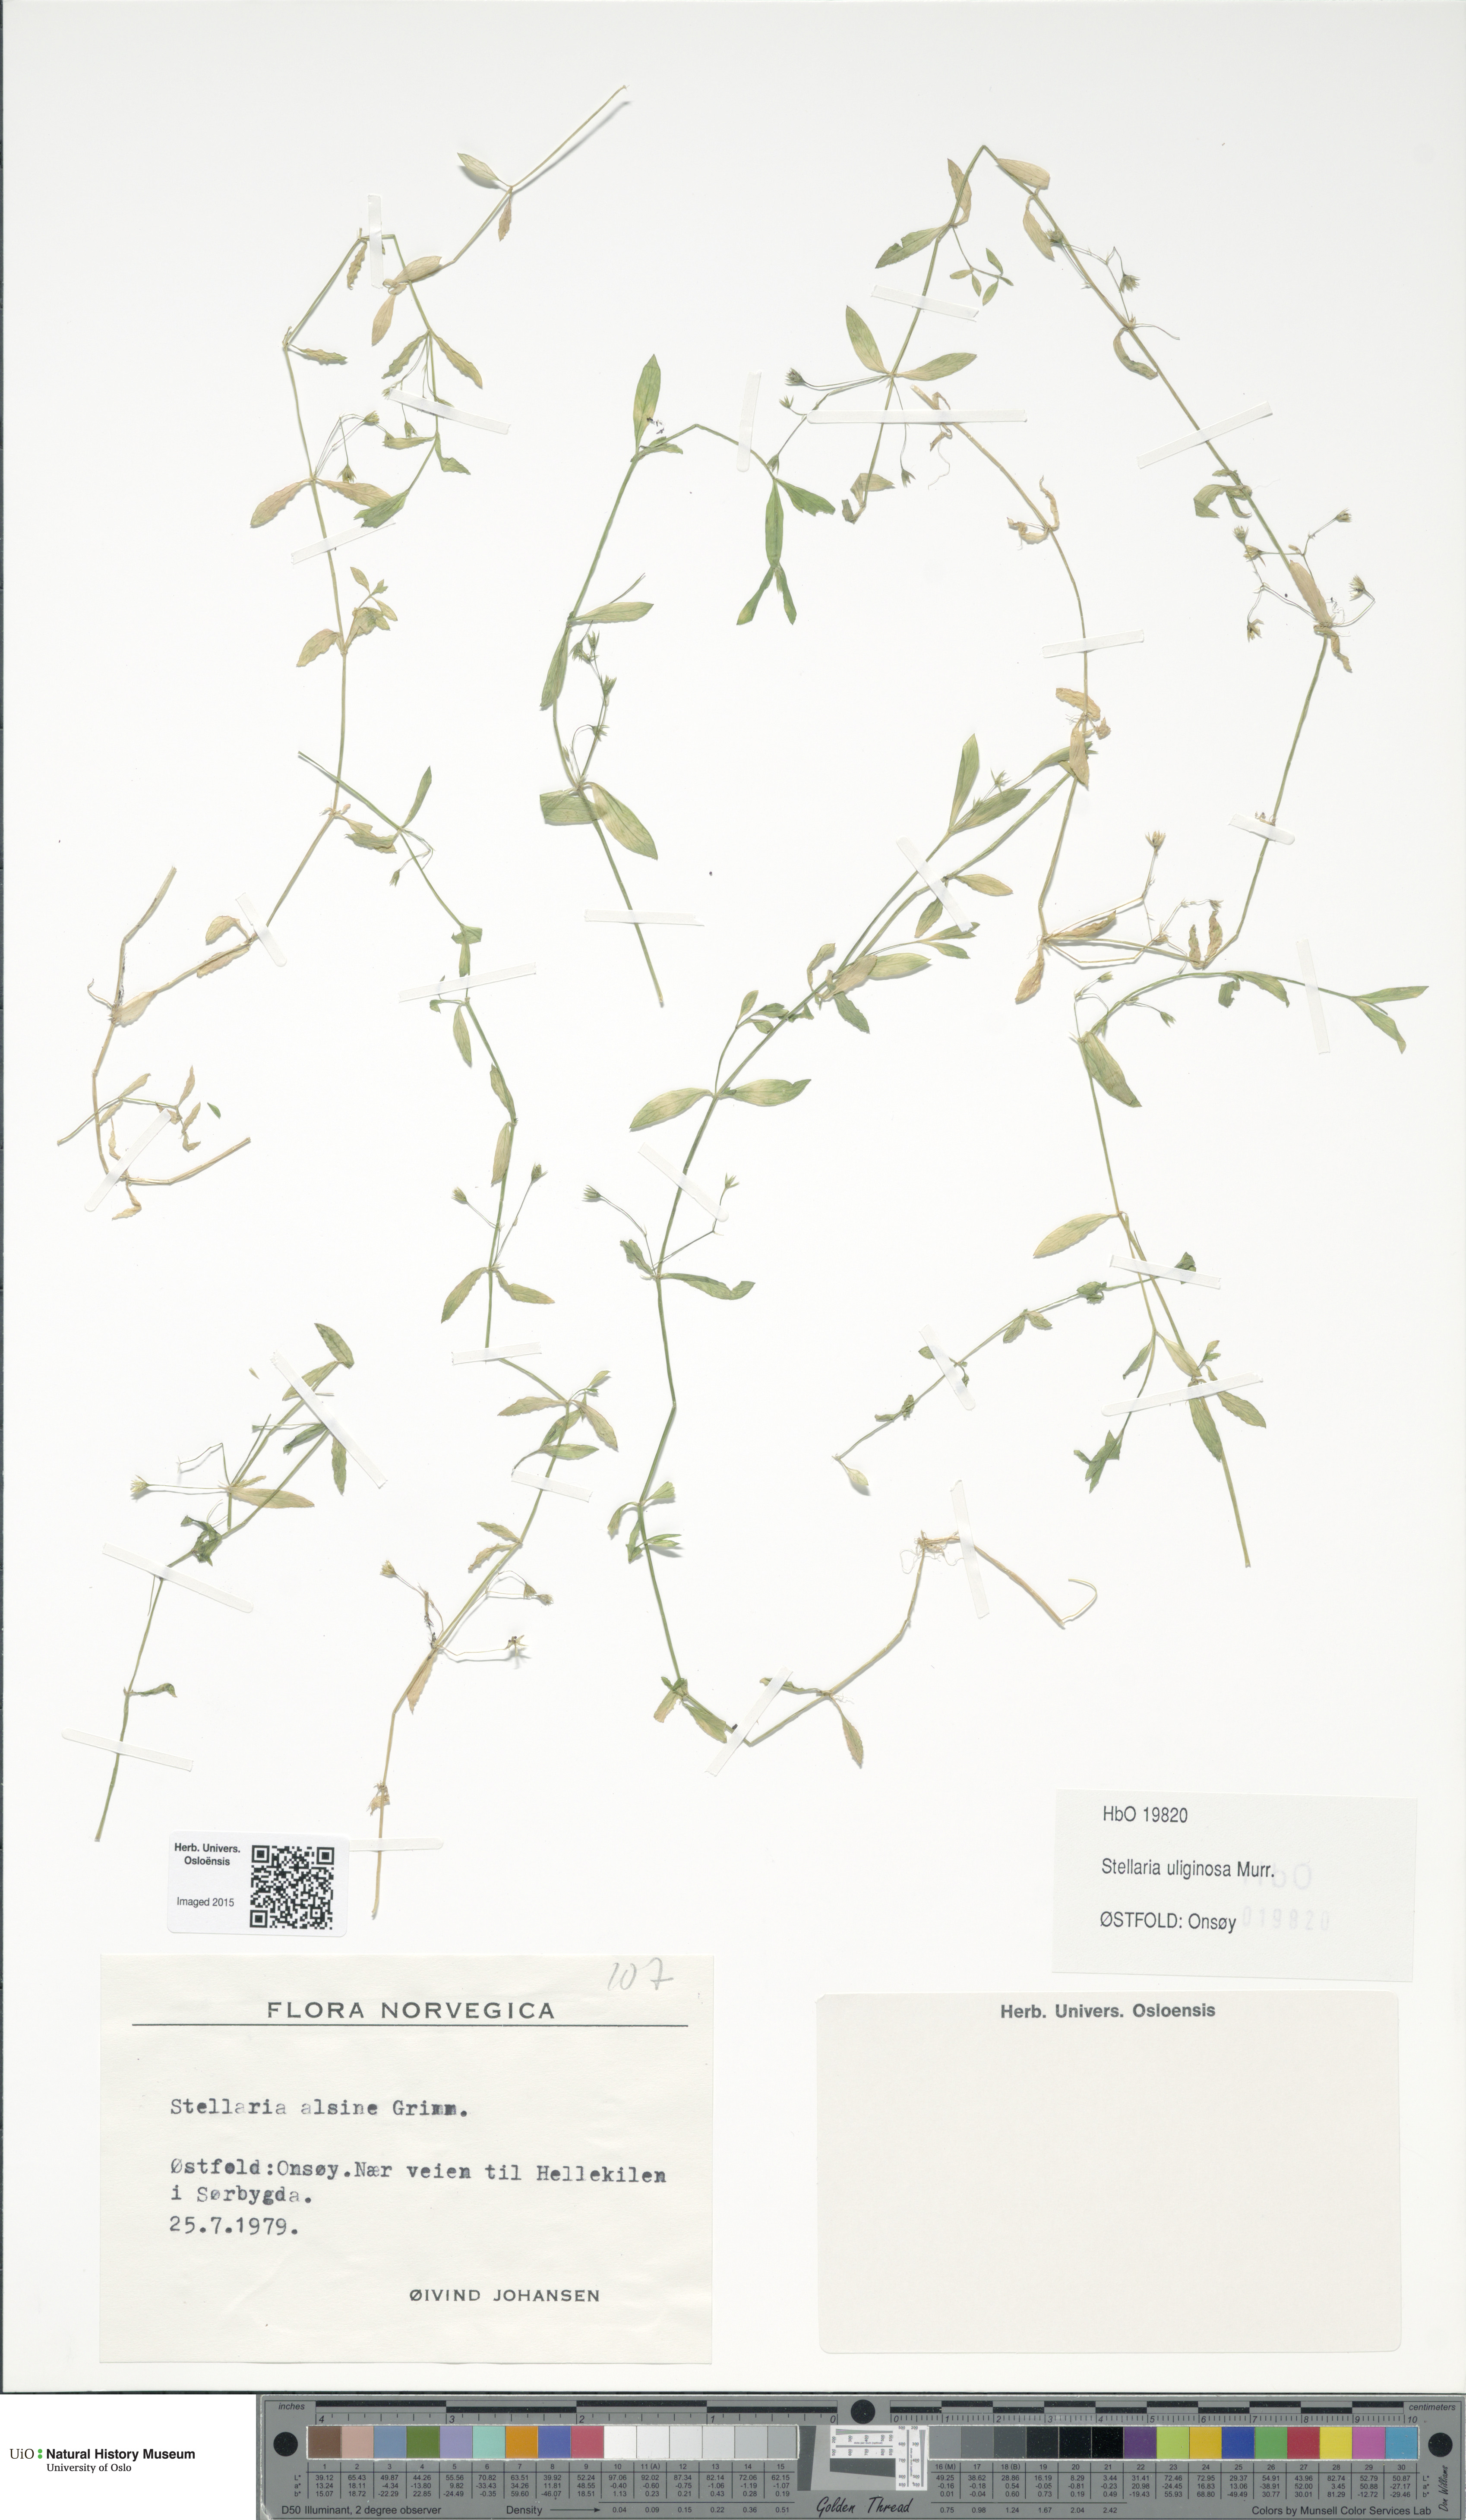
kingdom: Plantae
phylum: Tracheophyta
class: Magnoliopsida
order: Caryophyllales
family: Caryophyllaceae
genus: Stellaria
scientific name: Stellaria alsine
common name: Bog stitchwort
